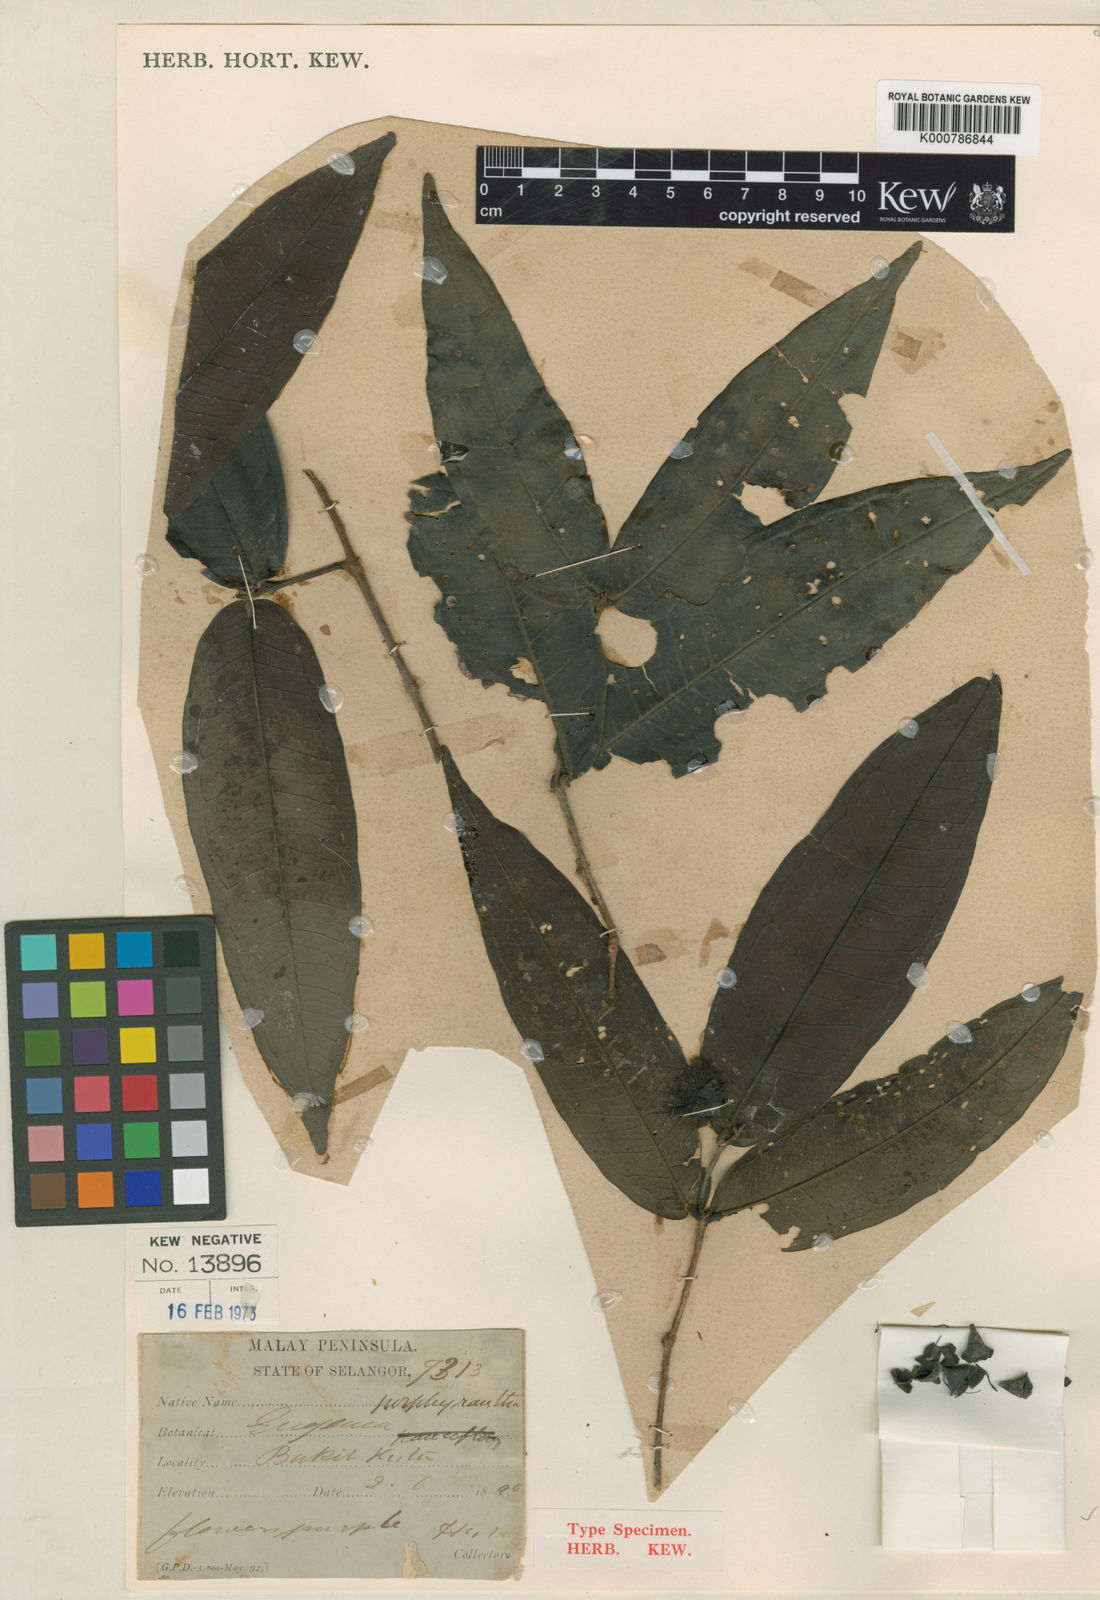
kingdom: Plantae
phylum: Tracheophyta
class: Magnoliopsida
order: Myrtales
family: Myrtaceae
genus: Syzygium
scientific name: Syzygium porphyrantherum
